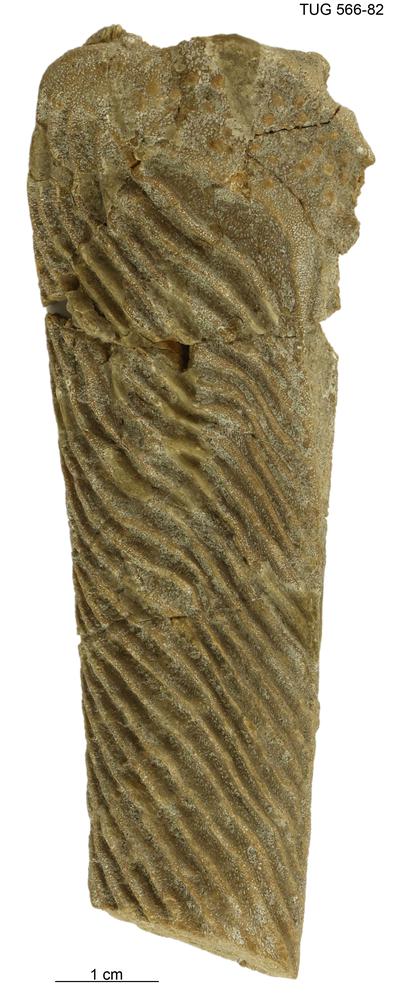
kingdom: Animalia
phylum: Chordata
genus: Homosteus
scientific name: Homosteus sulcatus
